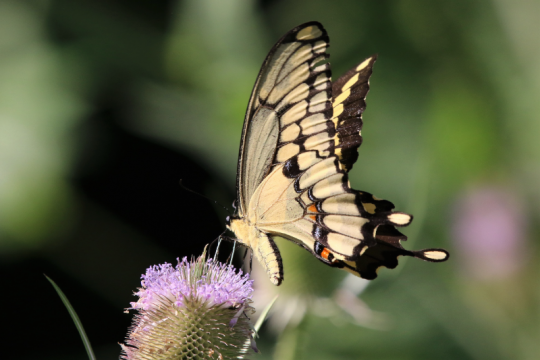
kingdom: Animalia
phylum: Arthropoda
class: Insecta
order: Lepidoptera
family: Papilionidae
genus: Papilio
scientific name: Papilio cresphontes
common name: Eastern Giant Swallowtail
